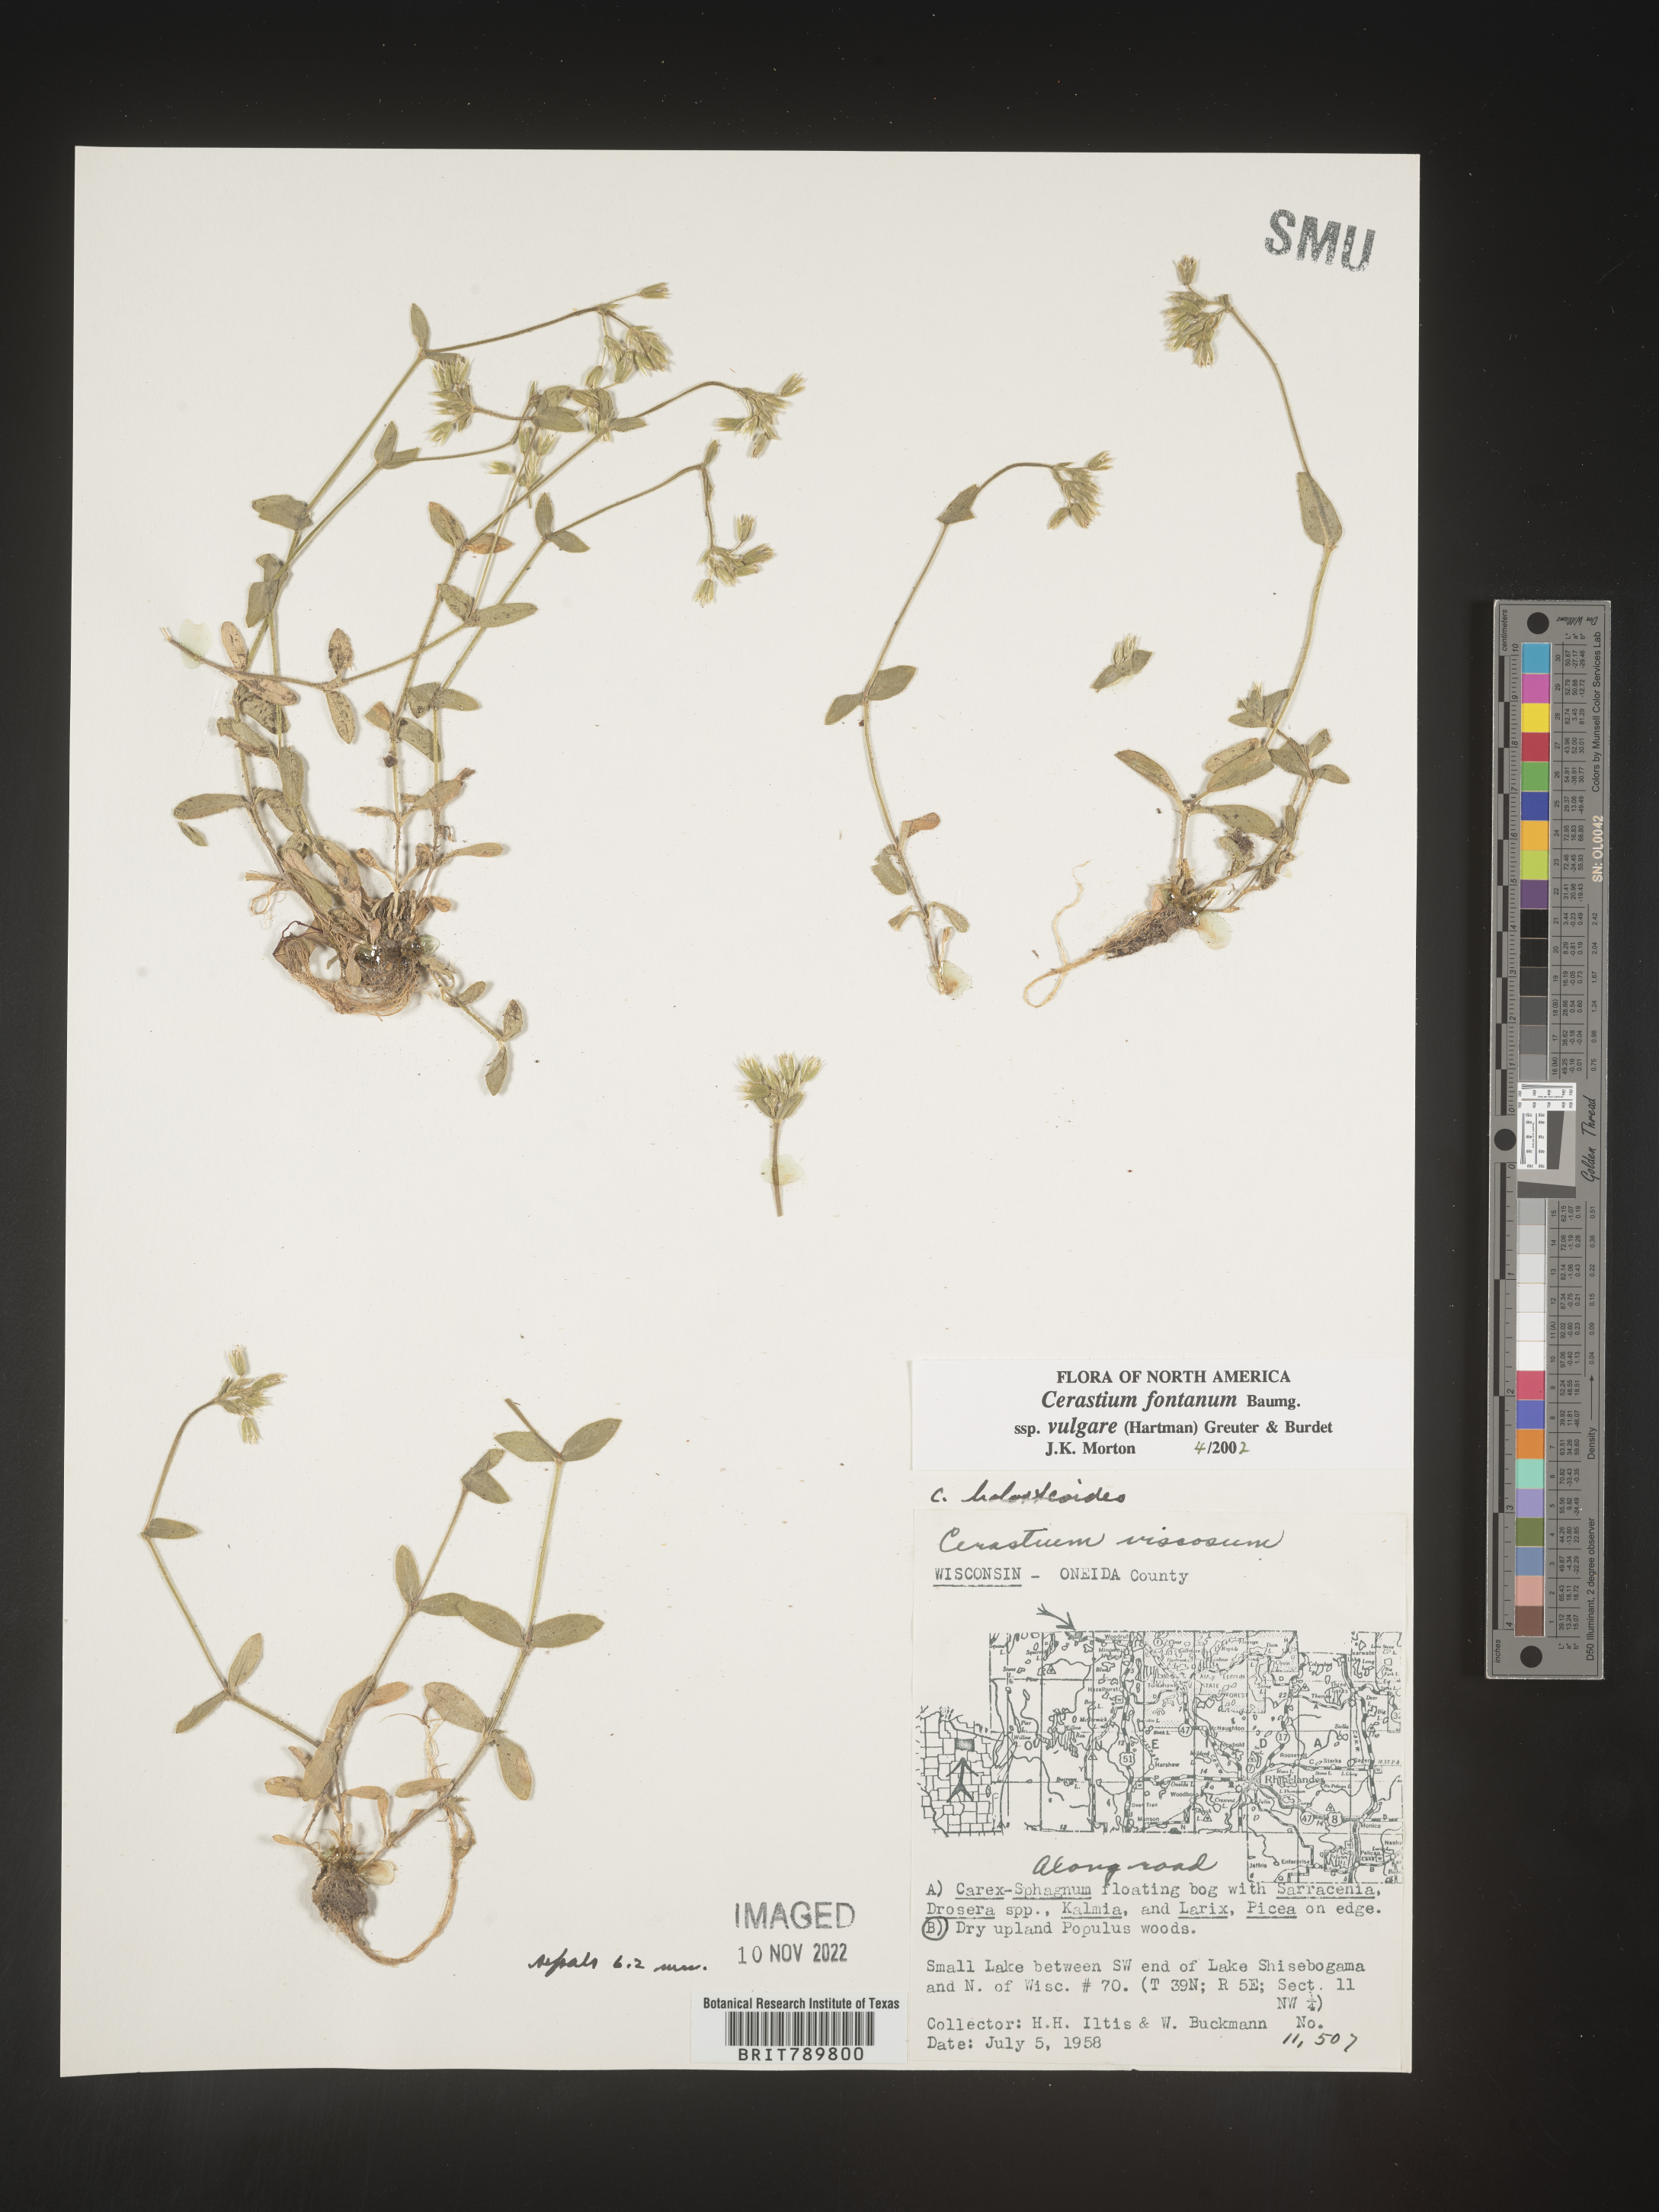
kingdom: Plantae
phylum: Tracheophyta
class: Magnoliopsida
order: Caryophyllales
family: Caryophyllaceae
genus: Cerastium
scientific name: Cerastium fontanum
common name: Common mouse-ear
